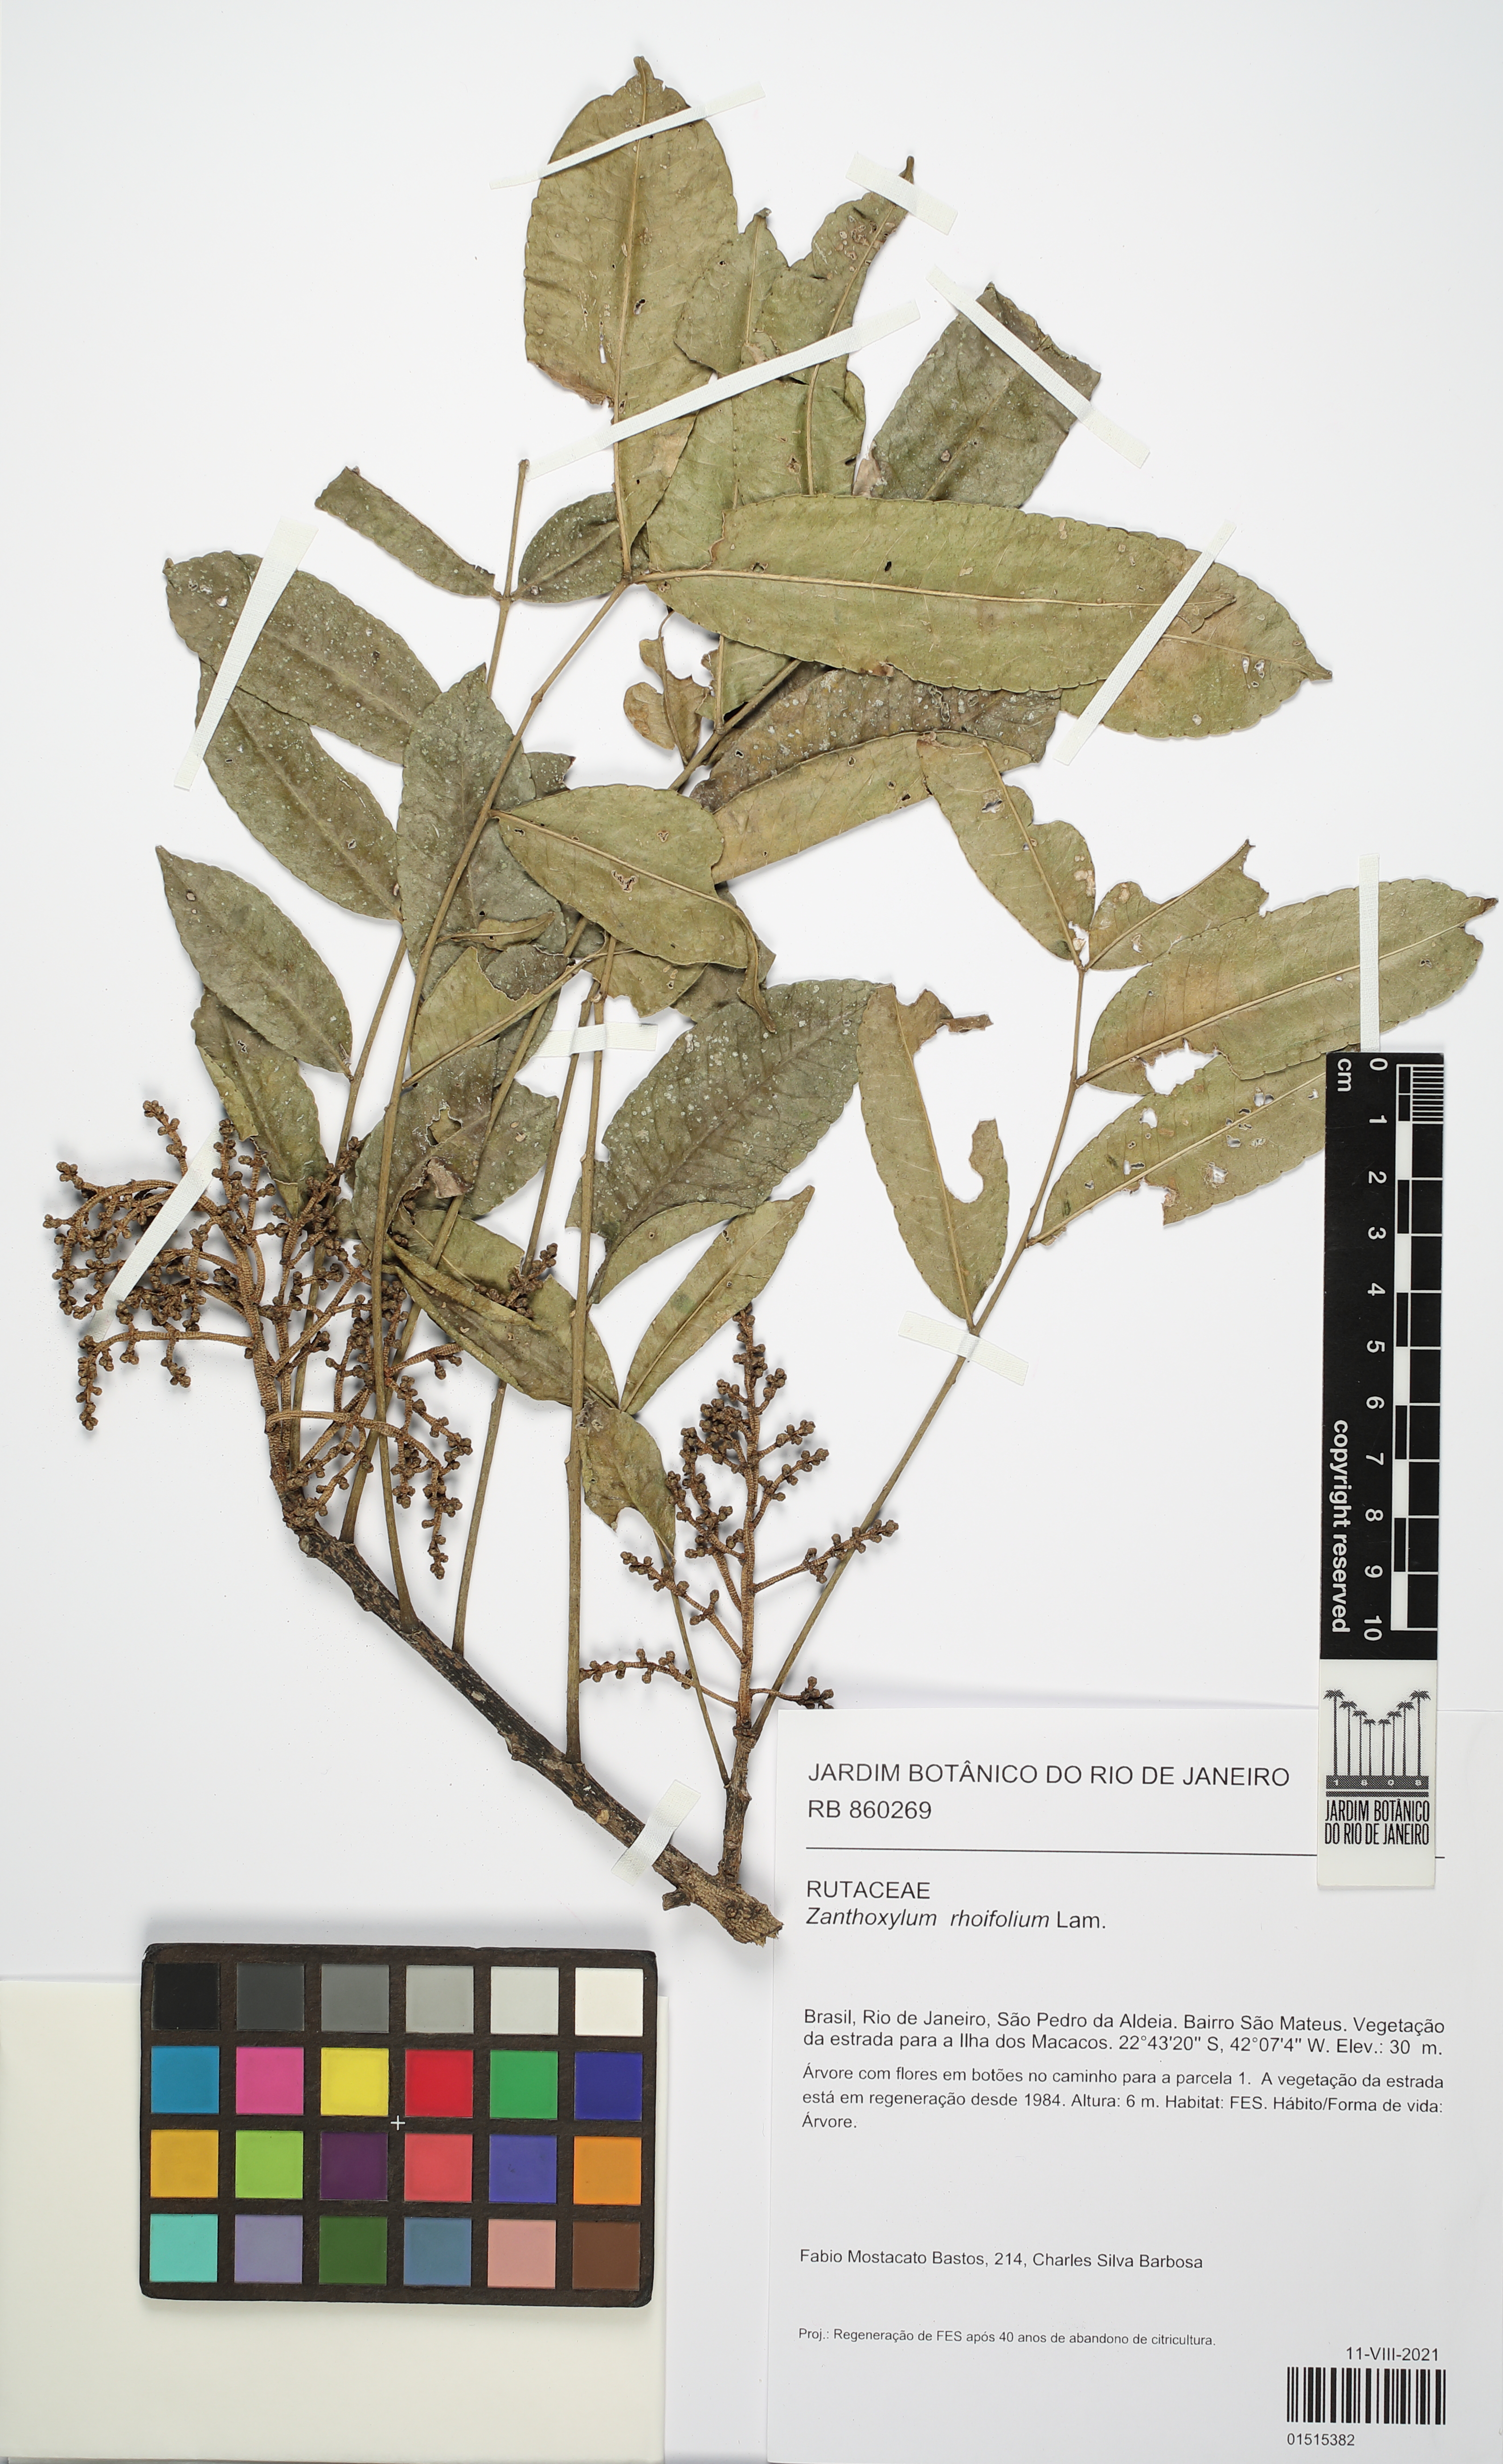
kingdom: Plantae
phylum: Tracheophyta
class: Magnoliopsida
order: Sapindales
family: Rutaceae
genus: Zanthoxylum
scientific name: Zanthoxylum rhoifolium
